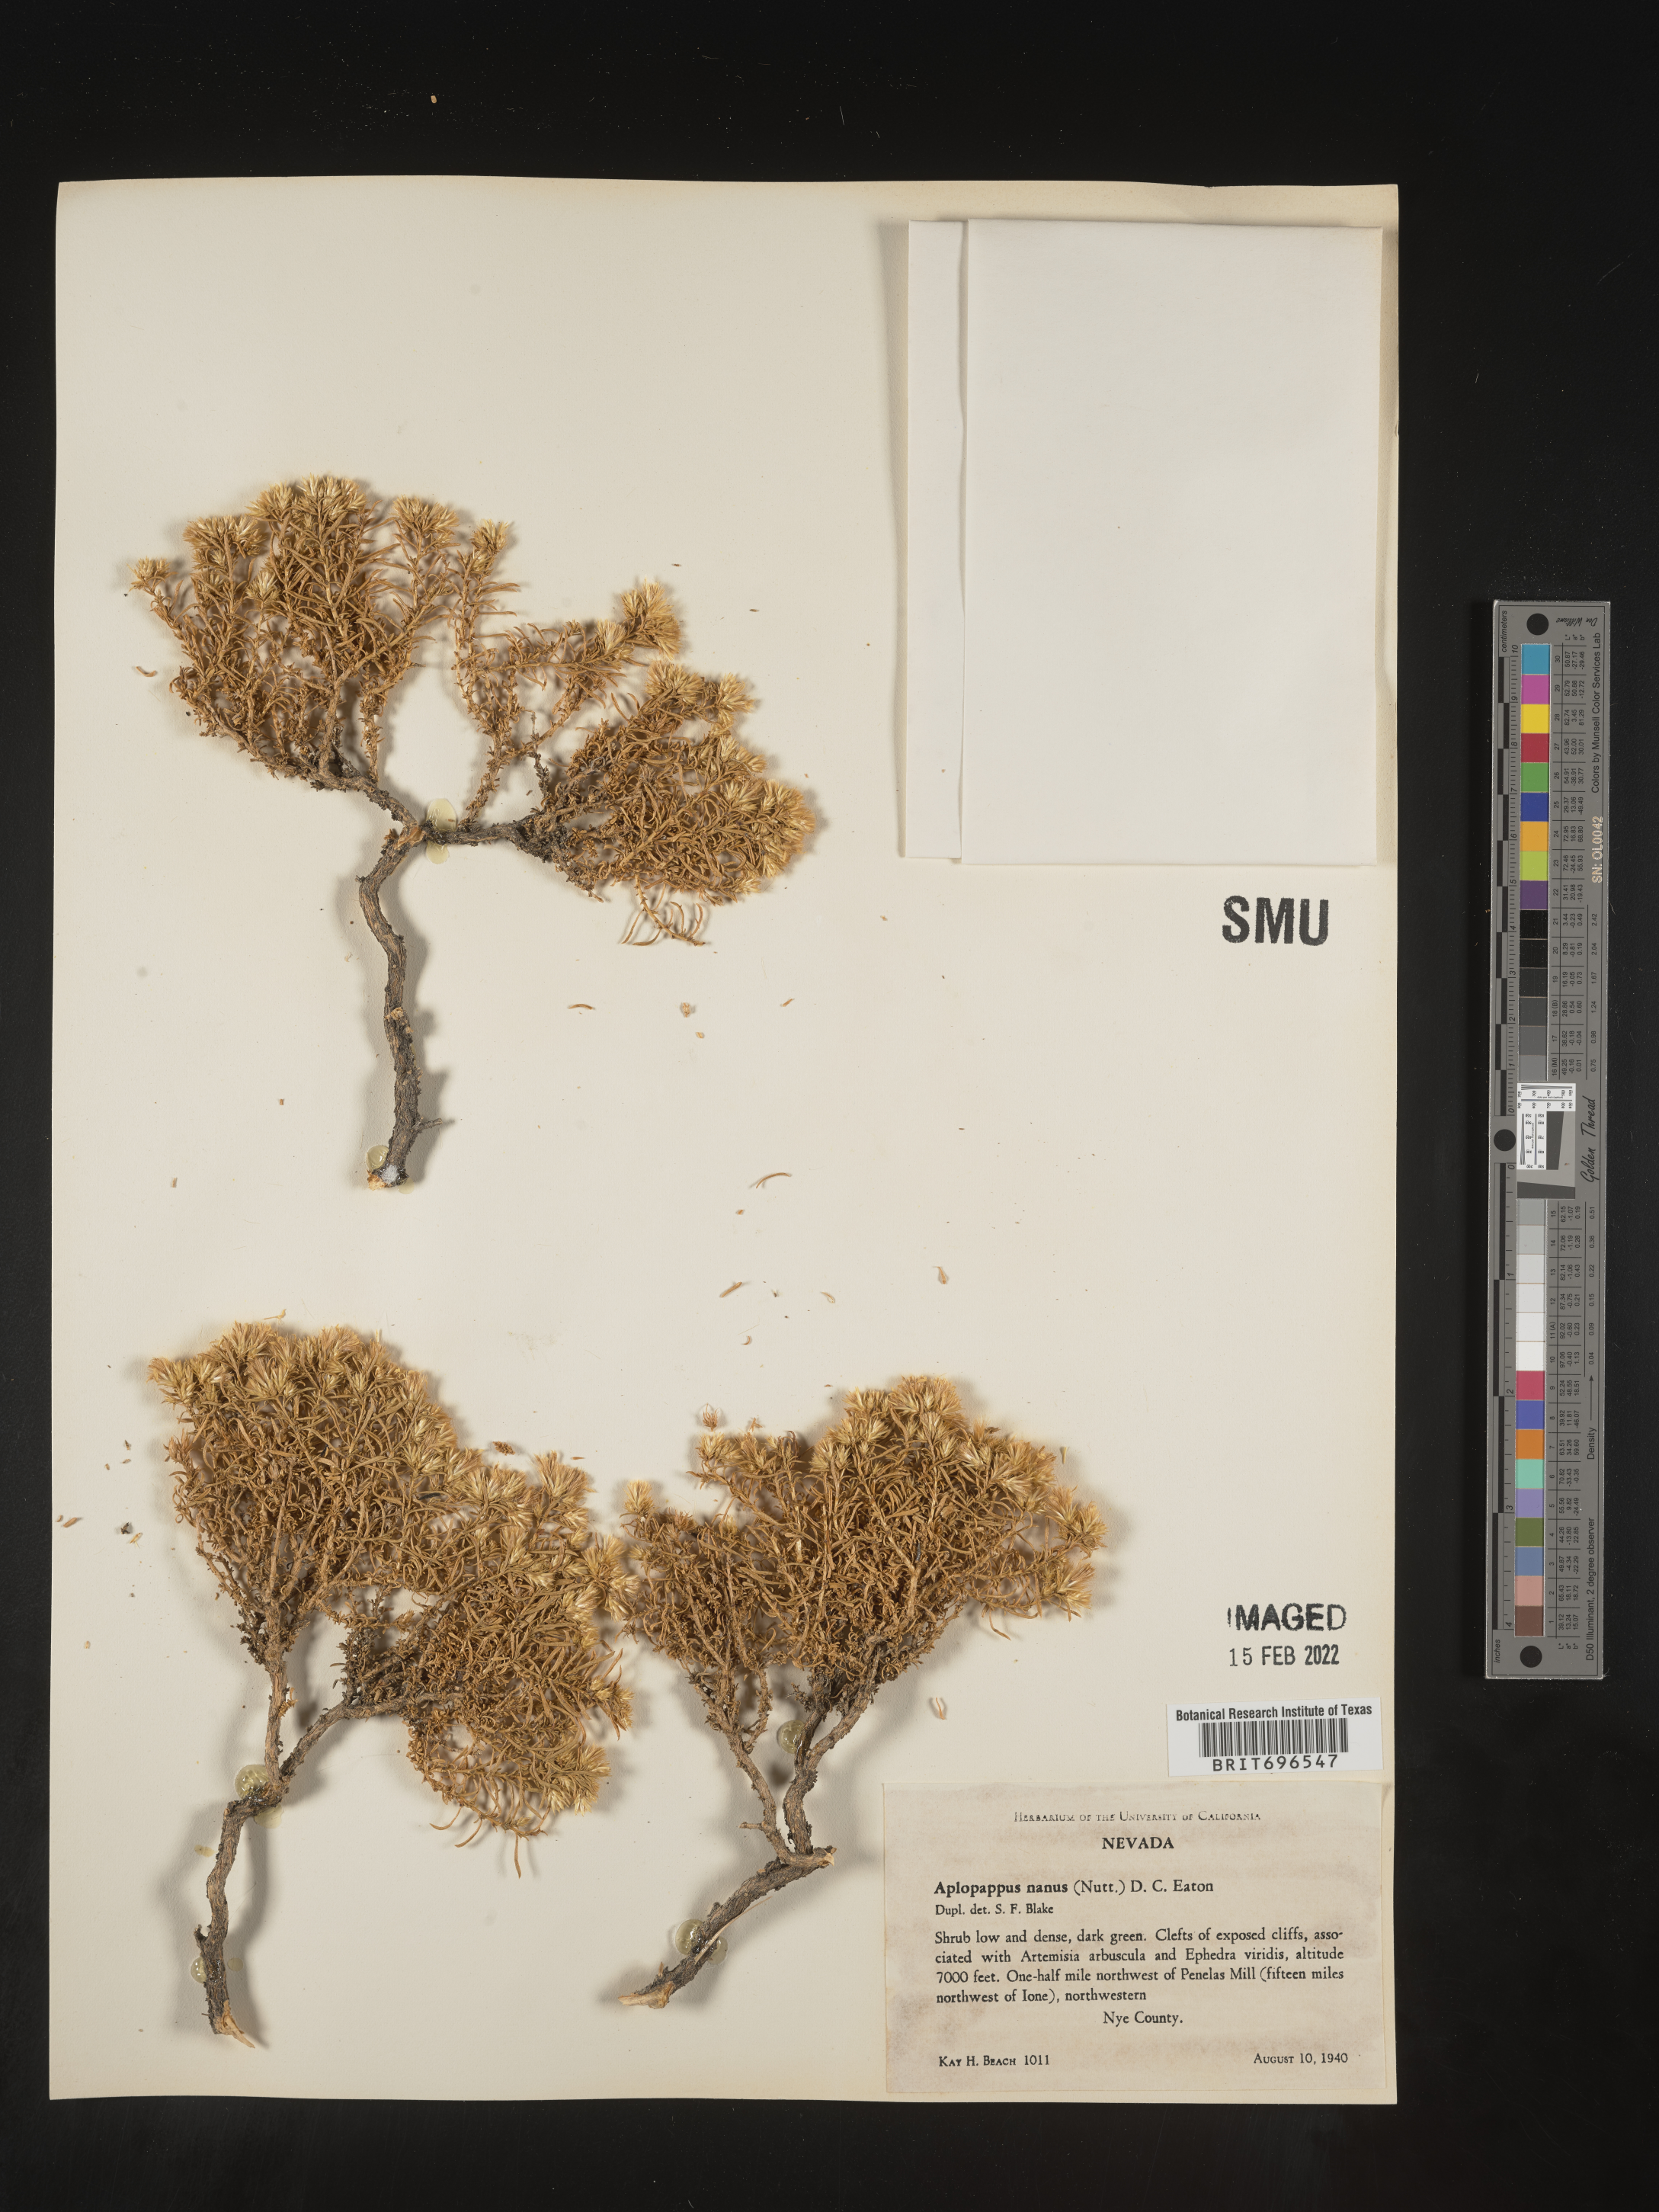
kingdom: Plantae
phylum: Tracheophyta
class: Magnoliopsida
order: Asterales
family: Asteraceae
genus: Ericameria
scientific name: Ericameria nana
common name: Dwarf goldenbush
